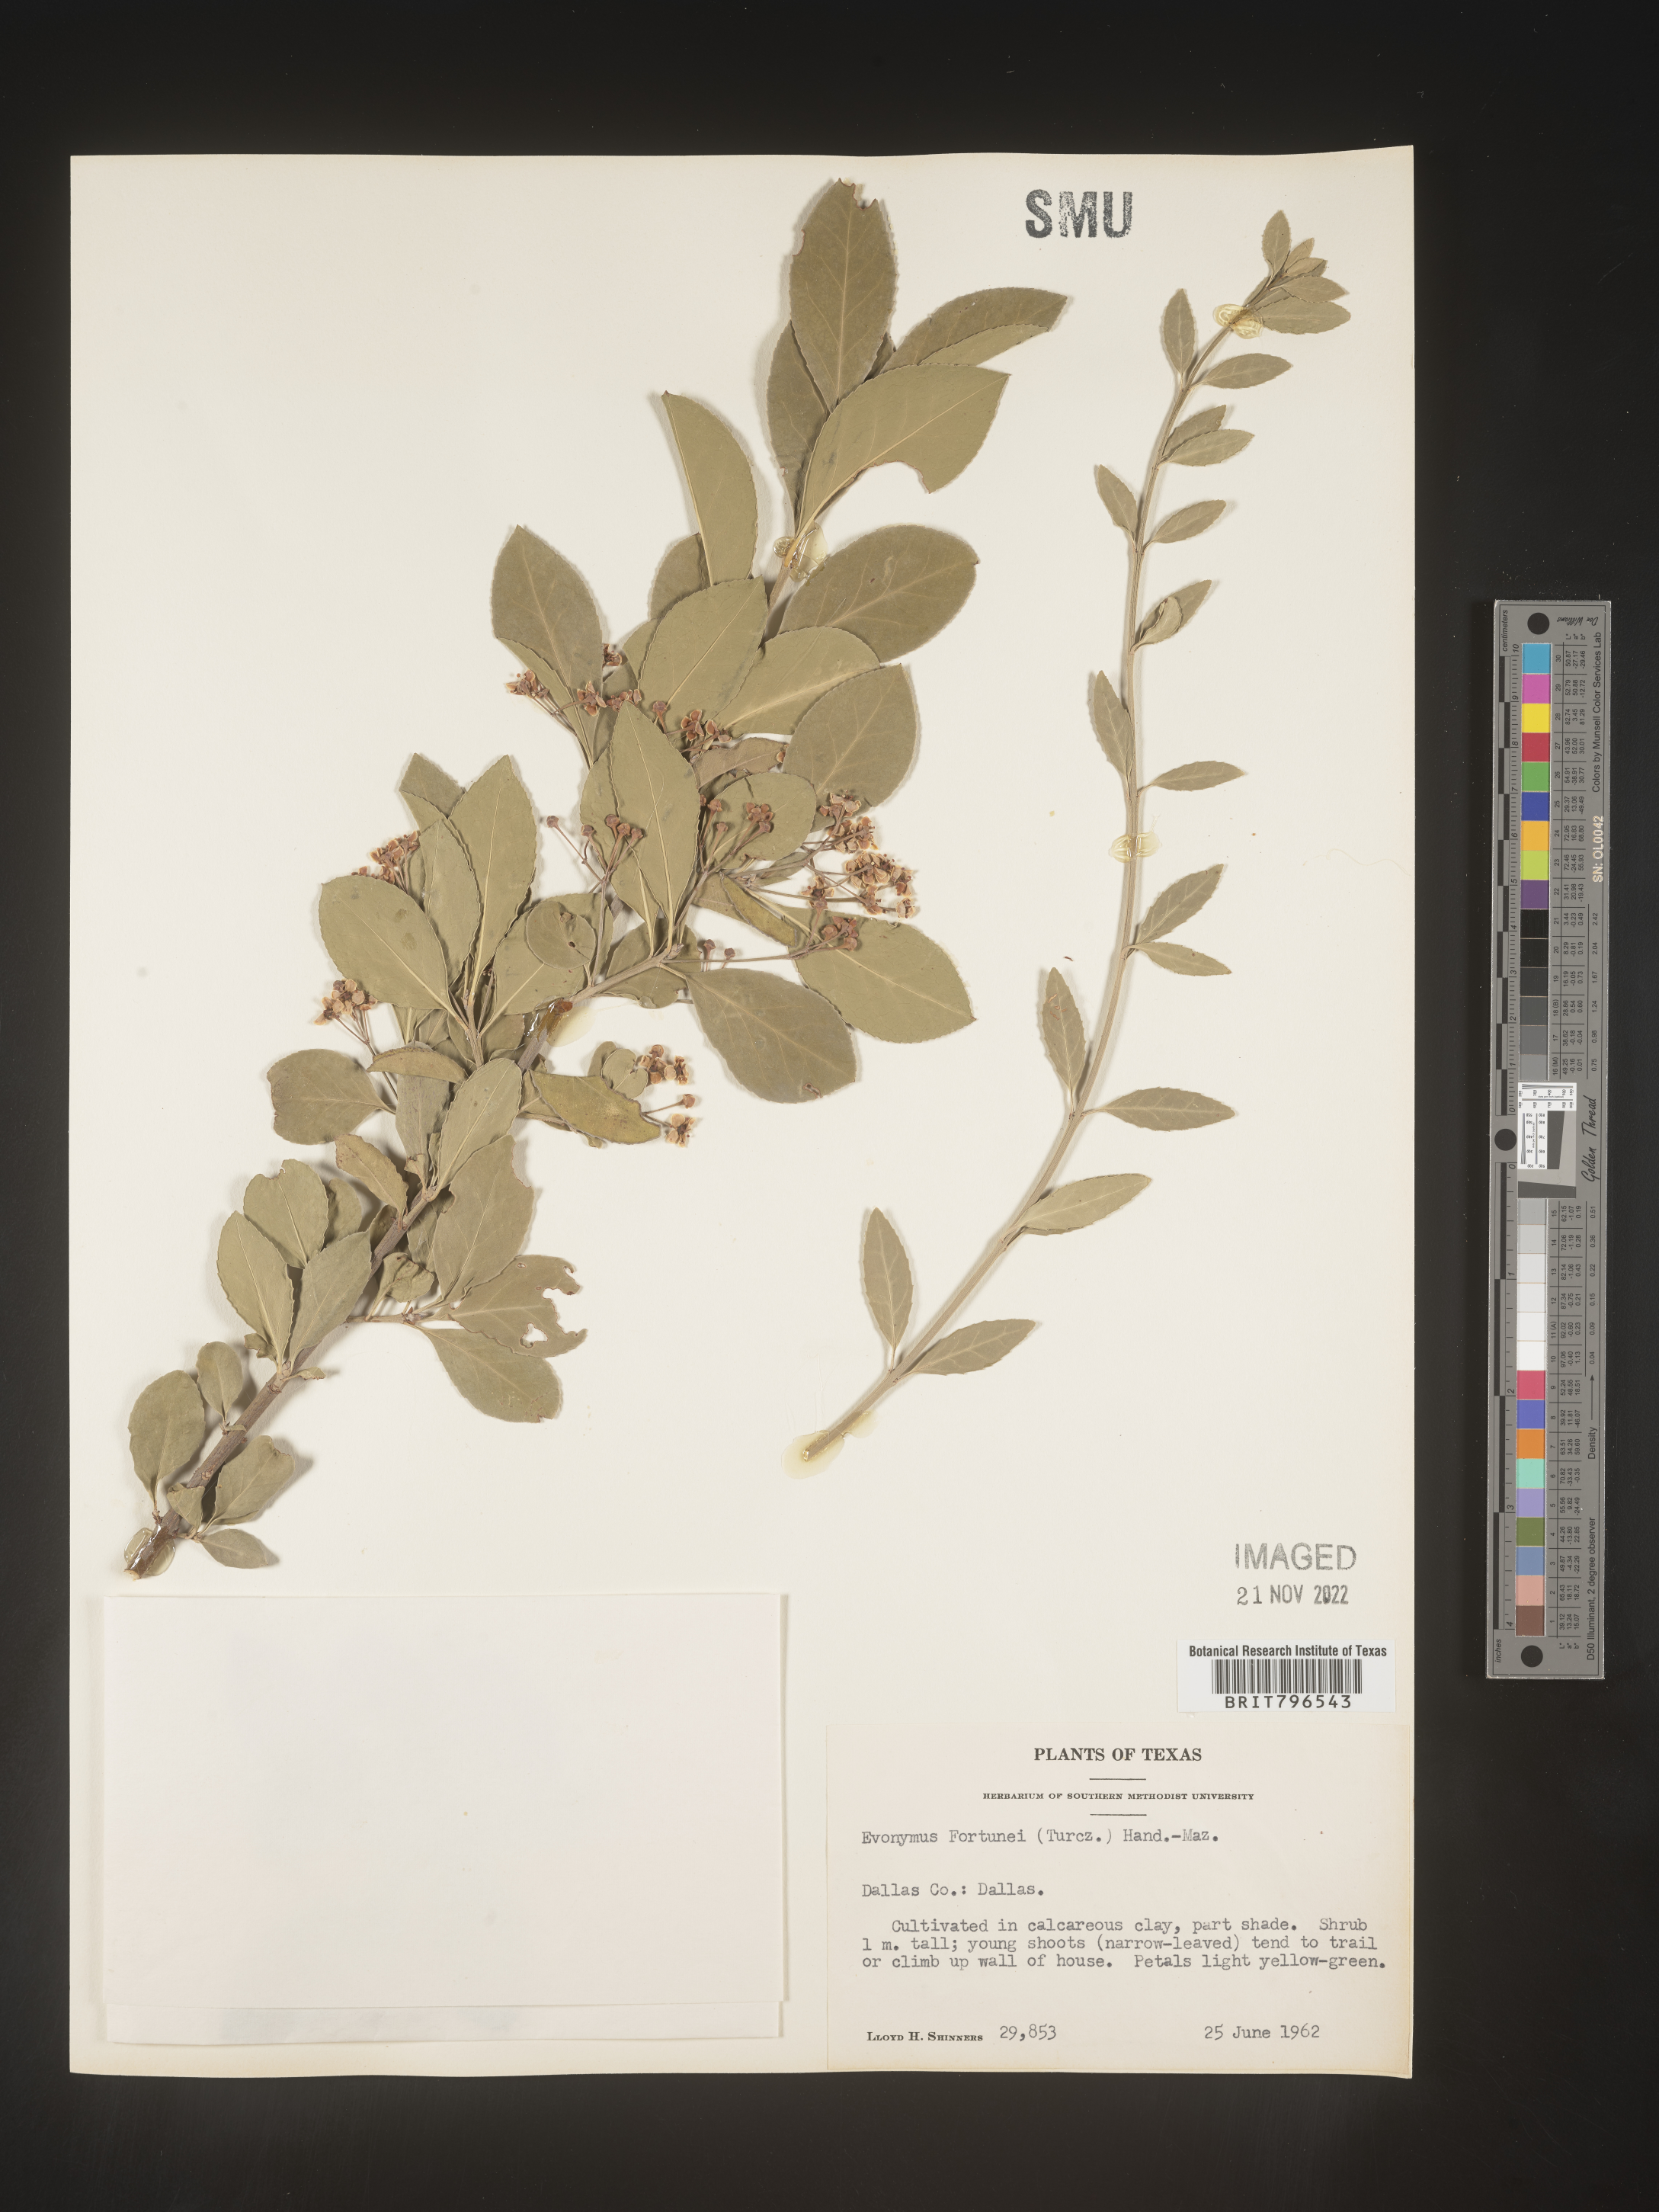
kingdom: Plantae
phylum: Tracheophyta
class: Magnoliopsida
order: Celastrales
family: Celastraceae
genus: Euonymus
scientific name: Euonymus
